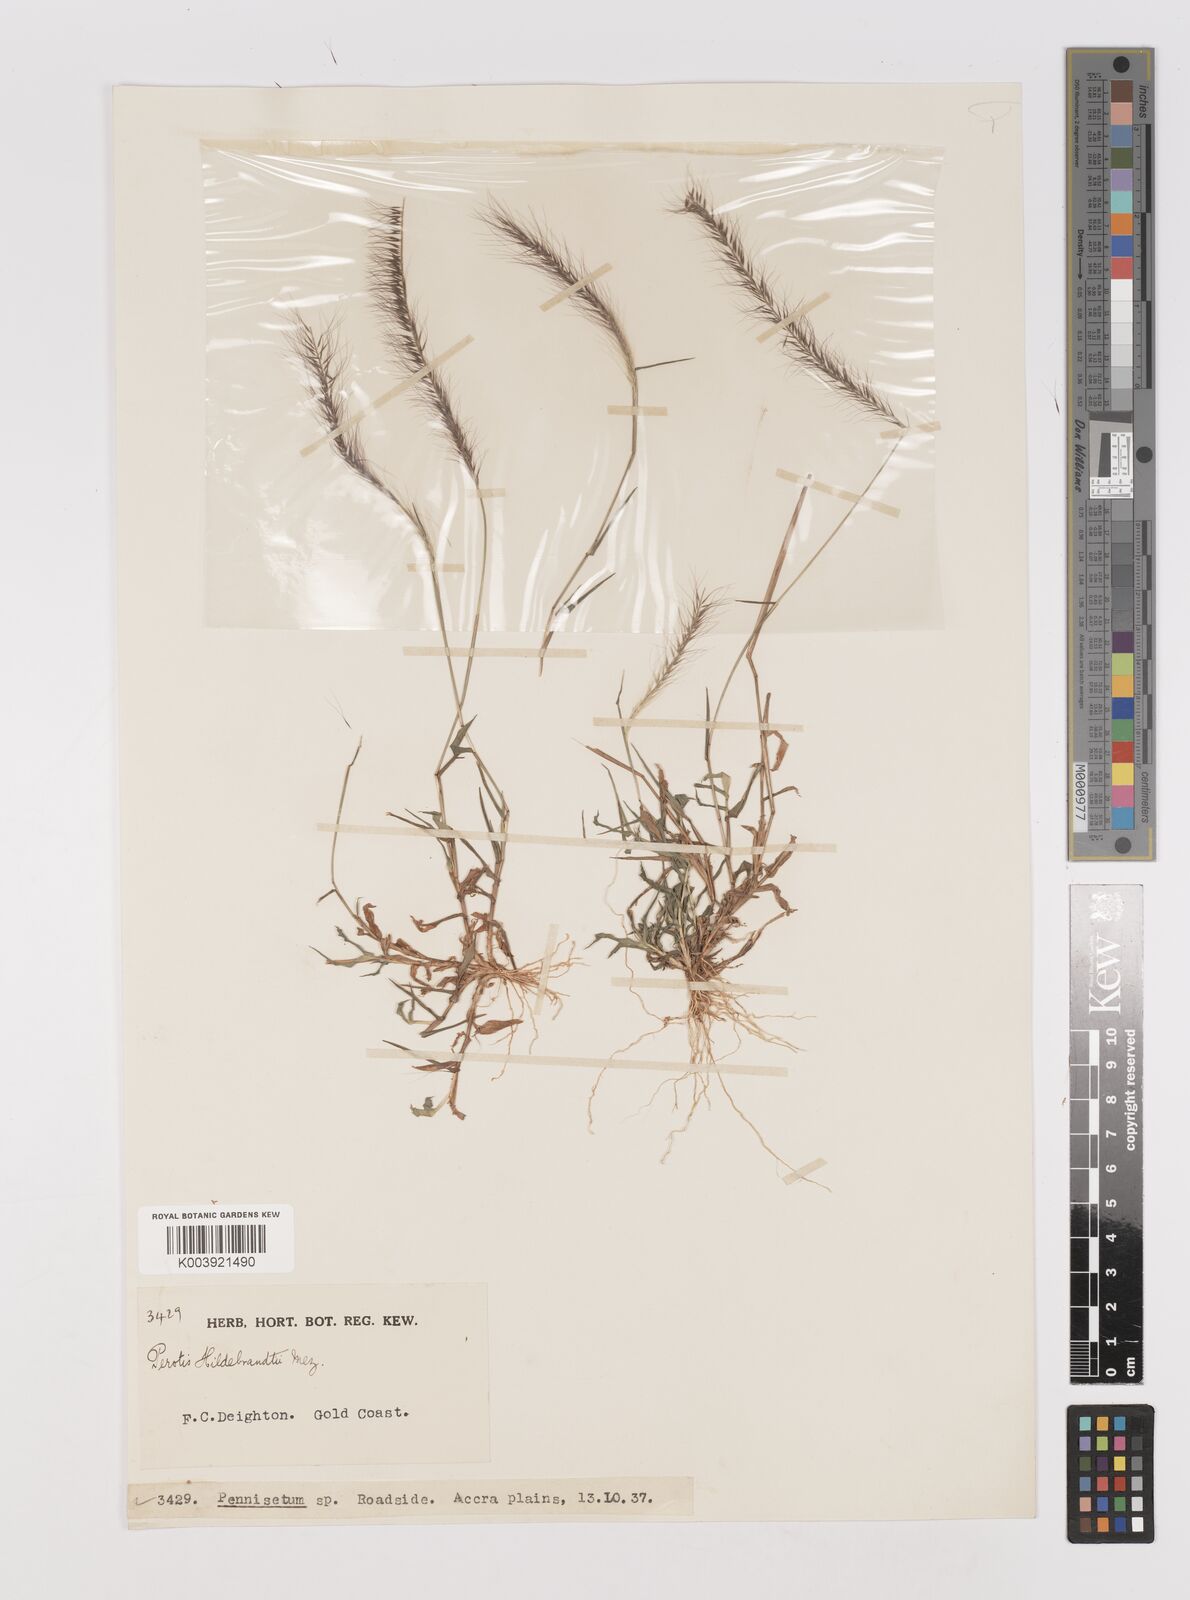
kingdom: Plantae
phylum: Tracheophyta
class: Liliopsida
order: Poales
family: Poaceae
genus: Perotis
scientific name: Perotis hildebrandtii
